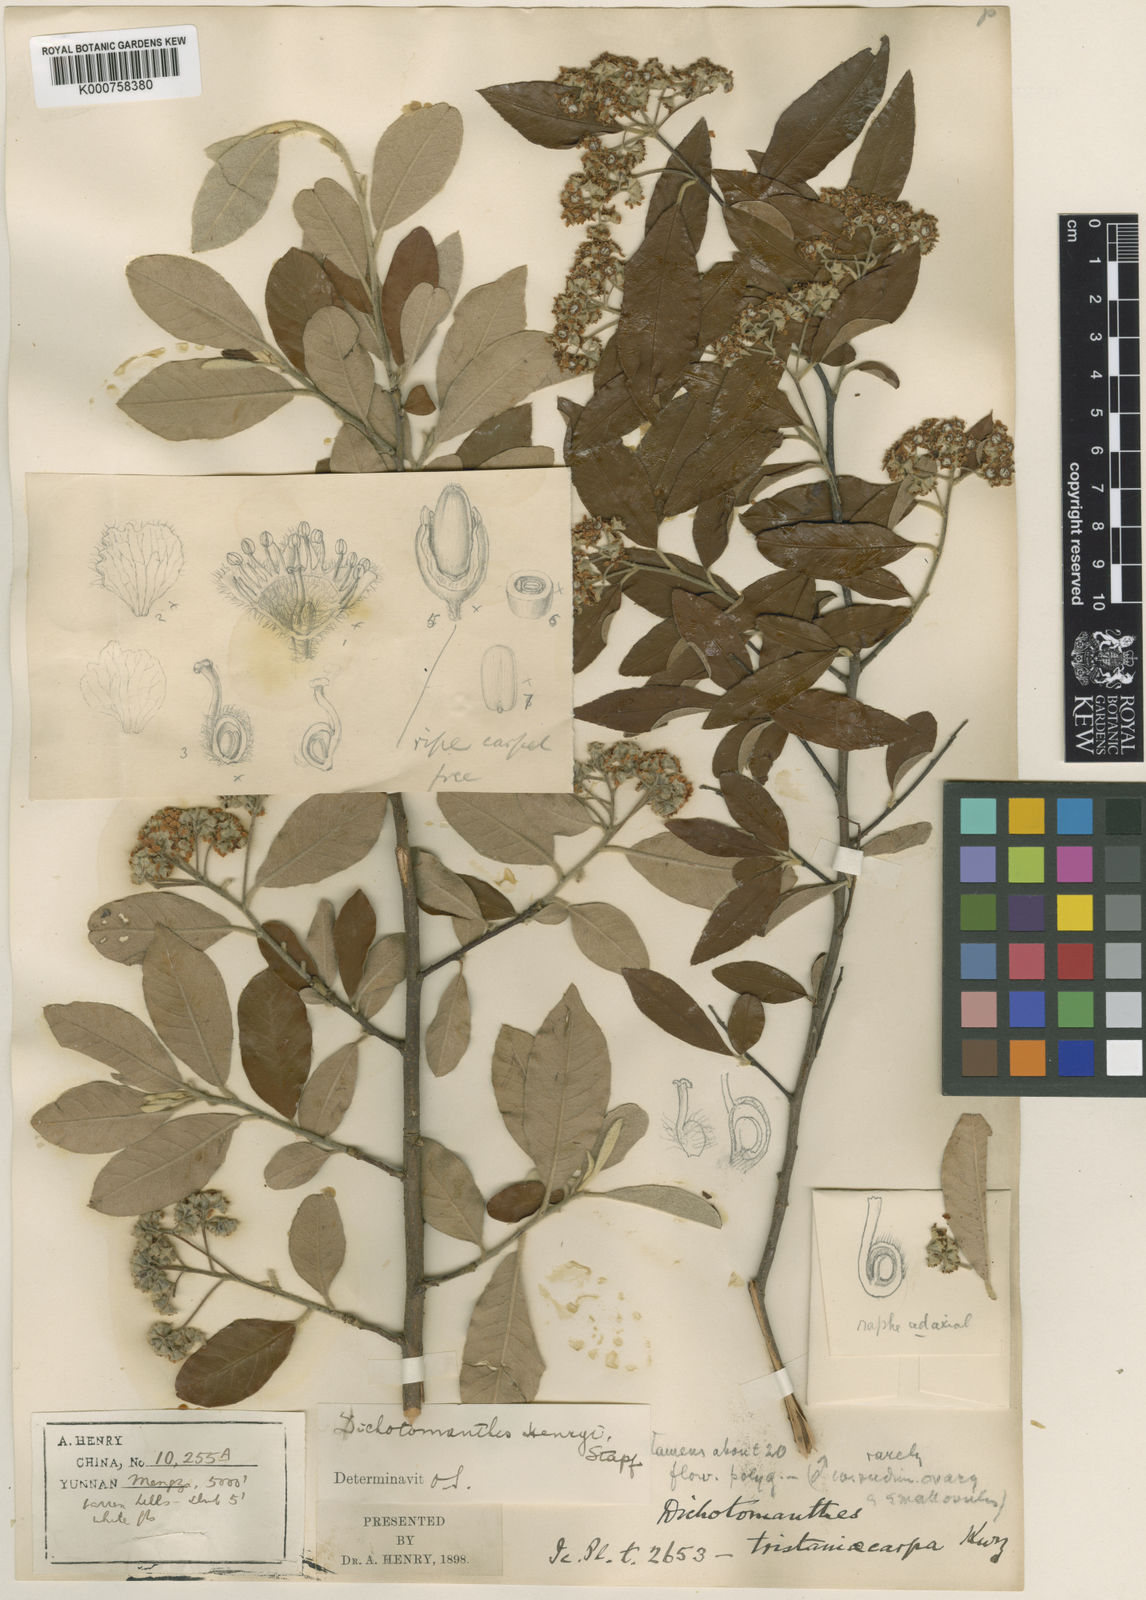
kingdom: Plantae
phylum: Tracheophyta
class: Magnoliopsida
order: Rosales
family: Rosaceae
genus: Dichotomanthes
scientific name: Dichotomanthes
